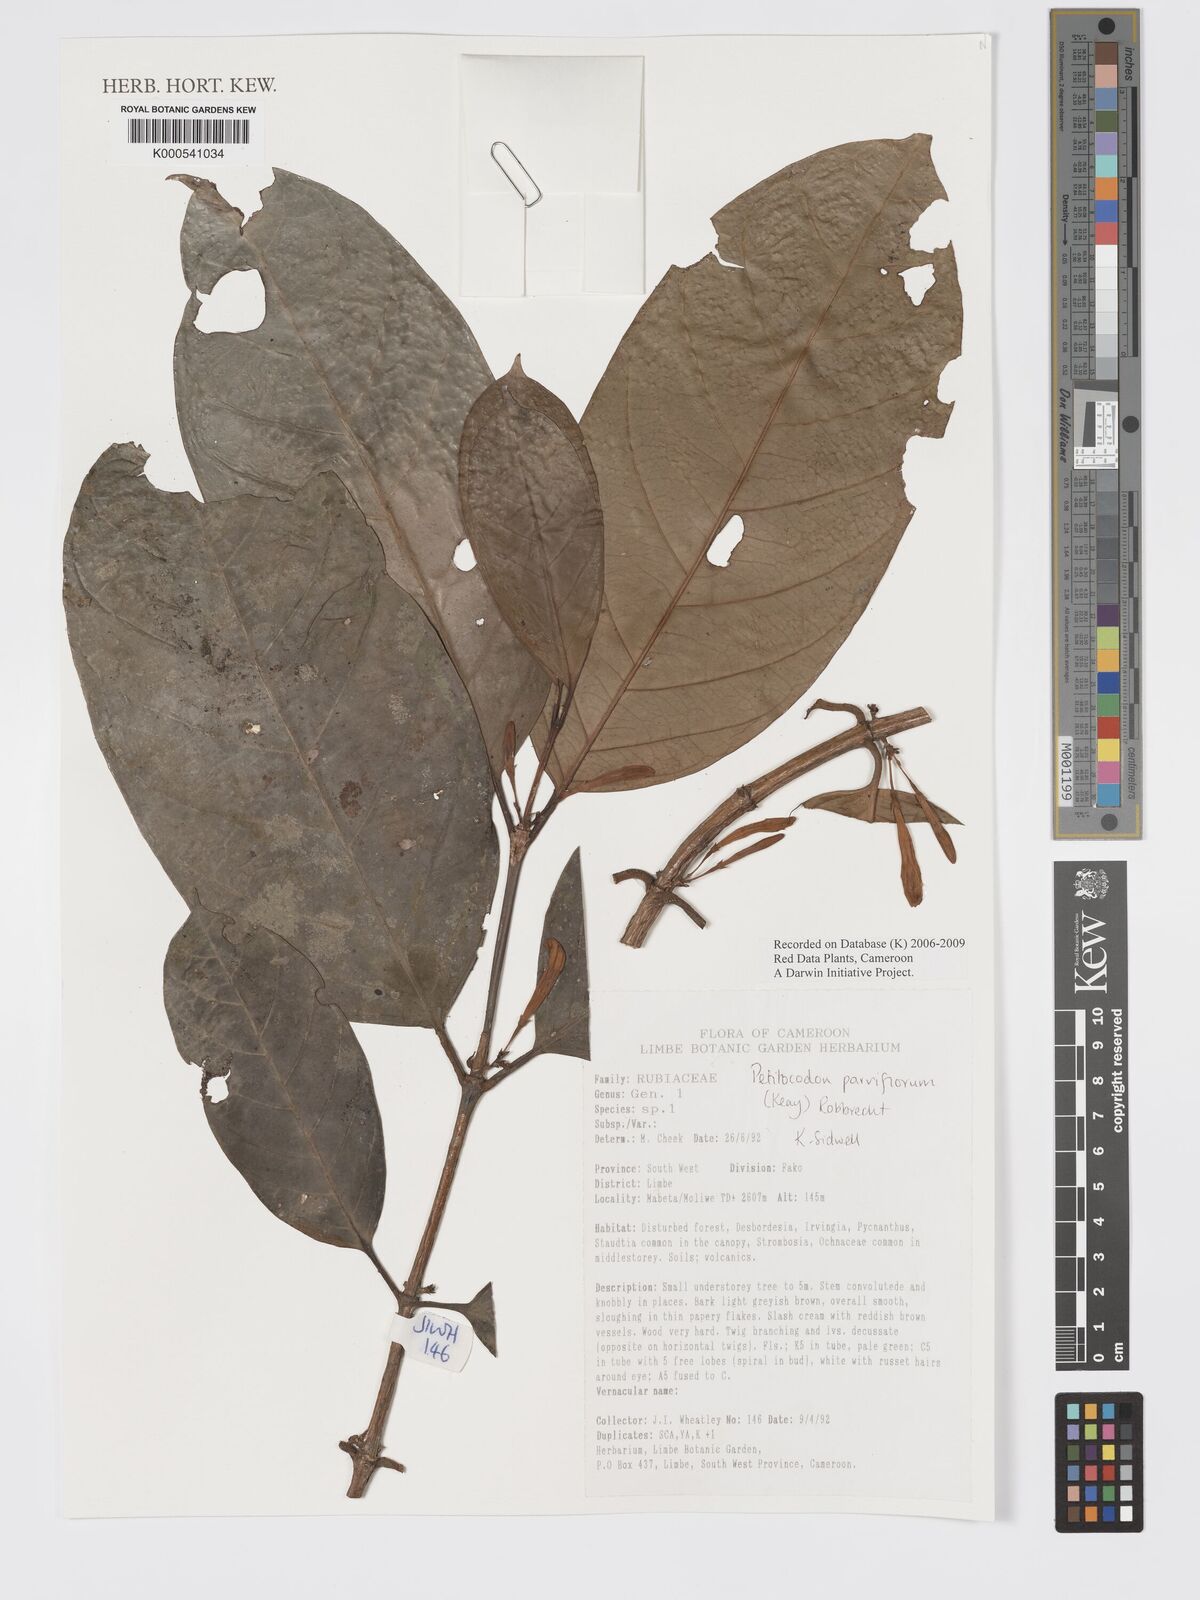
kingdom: Plantae
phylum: Tracheophyta
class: Magnoliopsida
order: Gentianales
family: Rubiaceae
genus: Petitiocodon
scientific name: Petitiocodon parviflorum
